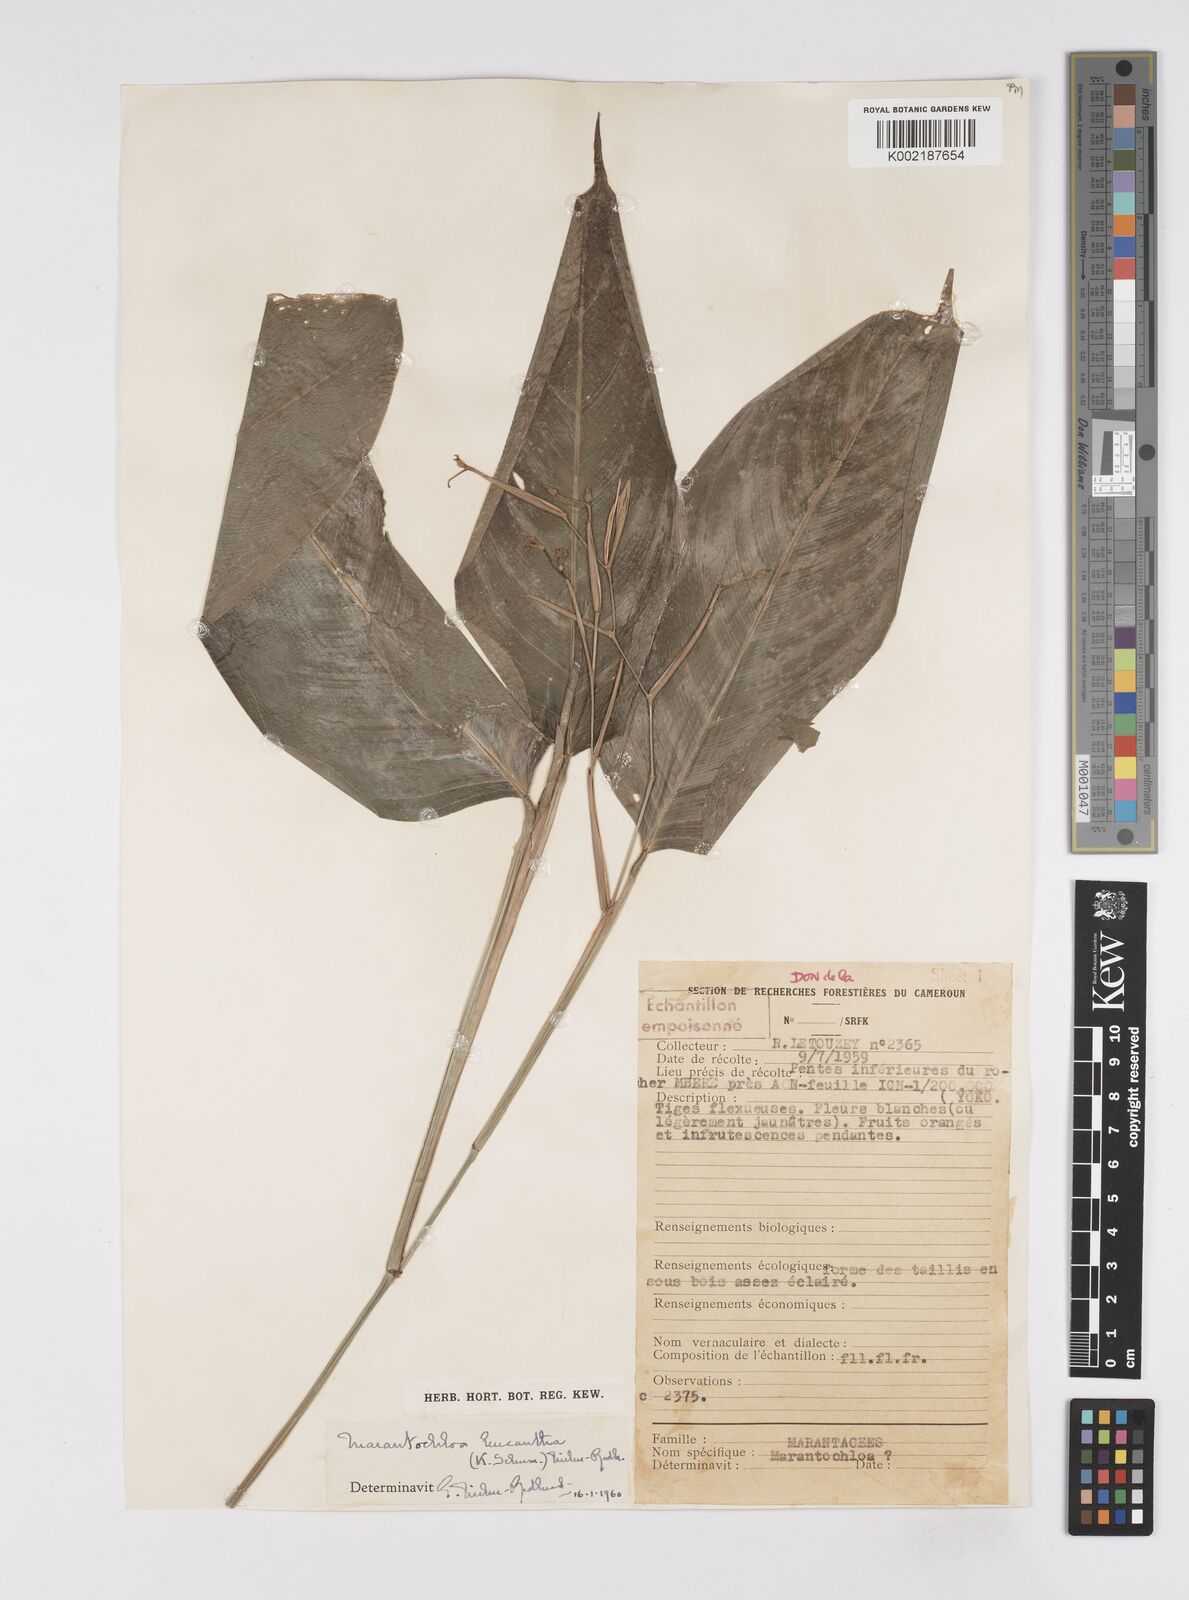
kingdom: Plantae
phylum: Tracheophyta
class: Liliopsida
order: Zingiberales
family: Marantaceae
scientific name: Marantaceae
